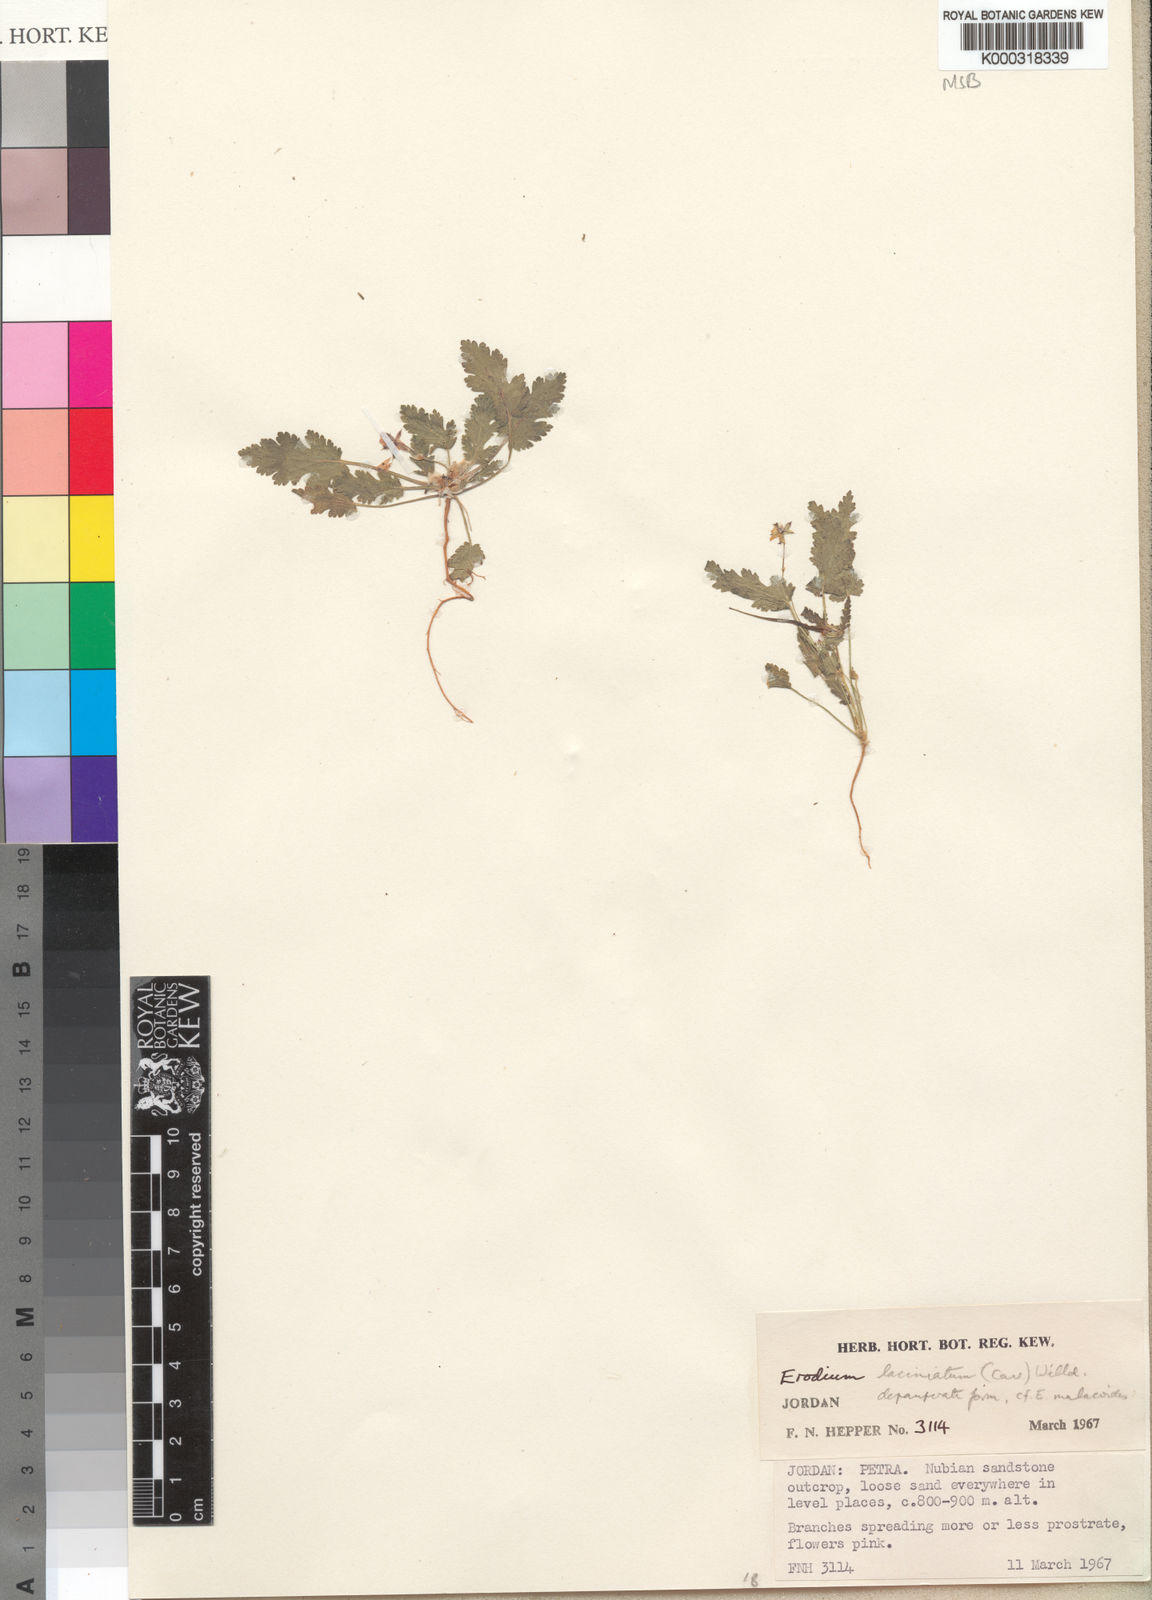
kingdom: Plantae
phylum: Tracheophyta
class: Magnoliopsida
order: Geraniales
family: Geraniaceae
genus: Erodium
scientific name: Erodium laciniatum
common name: Cutleaf stork's bill
